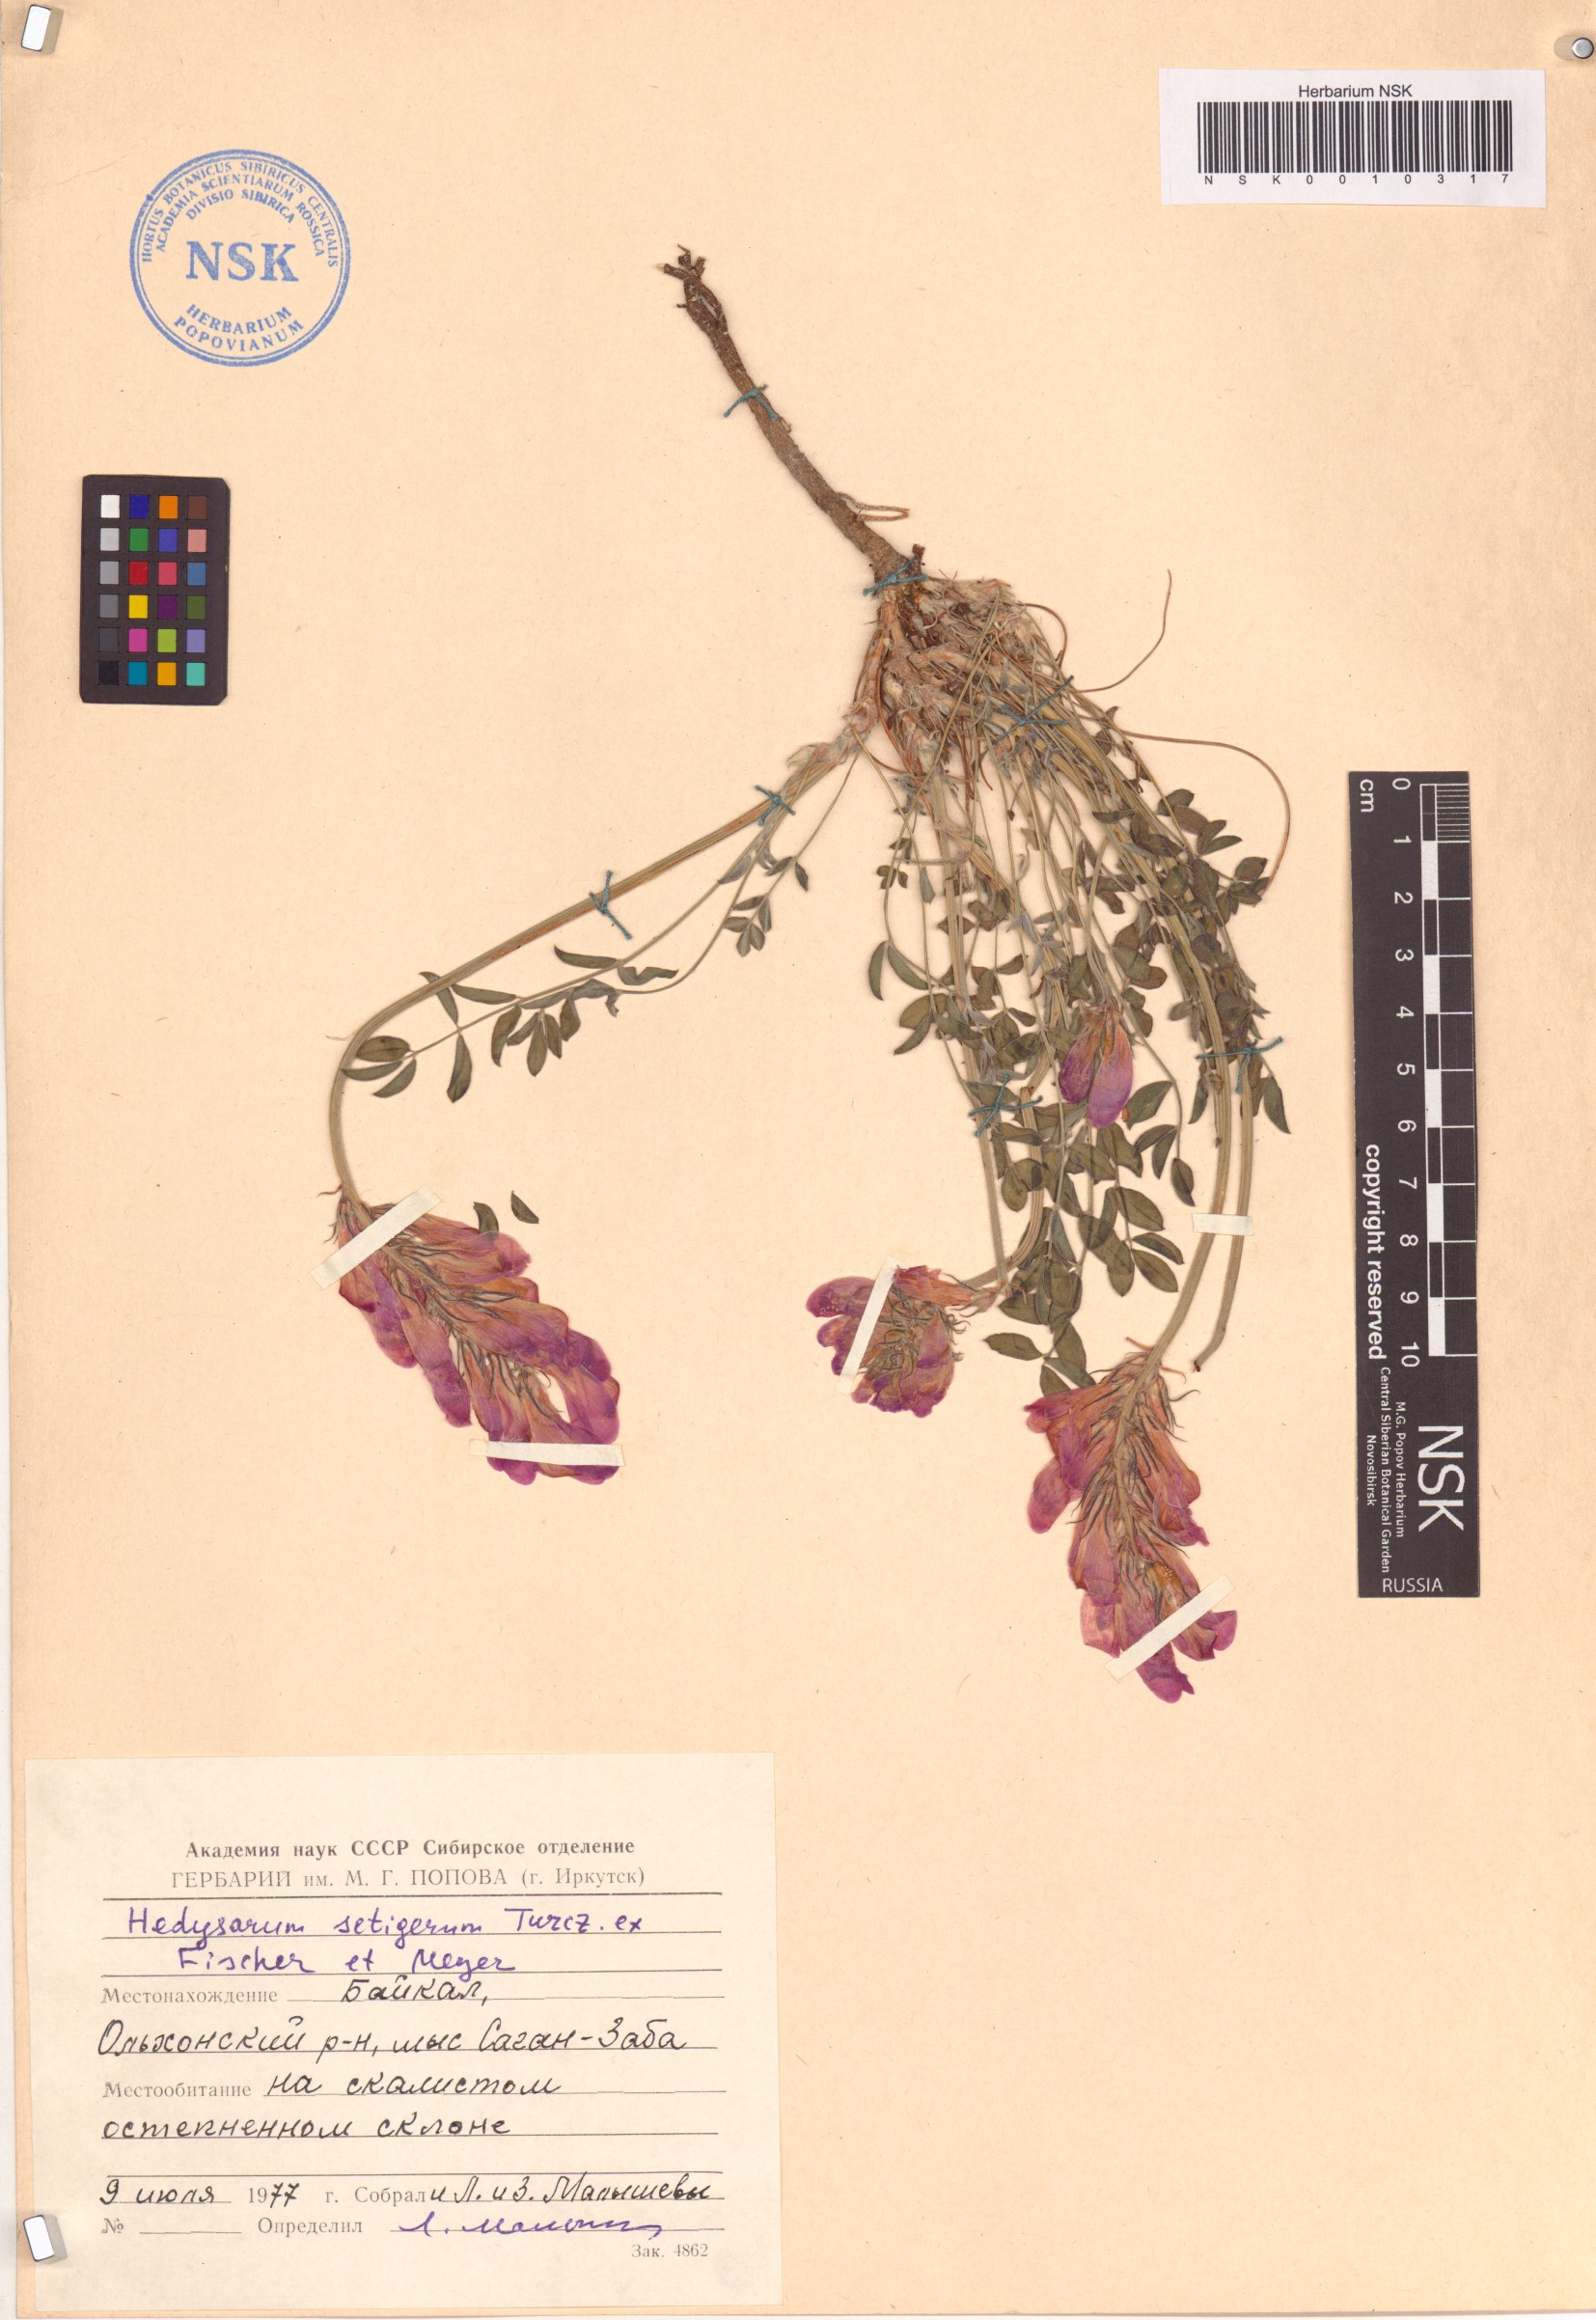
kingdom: Plantae
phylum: Tracheophyta
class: Magnoliopsida
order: Fabales
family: Fabaceae
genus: Hedysarum
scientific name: Hedysarum setigerum
